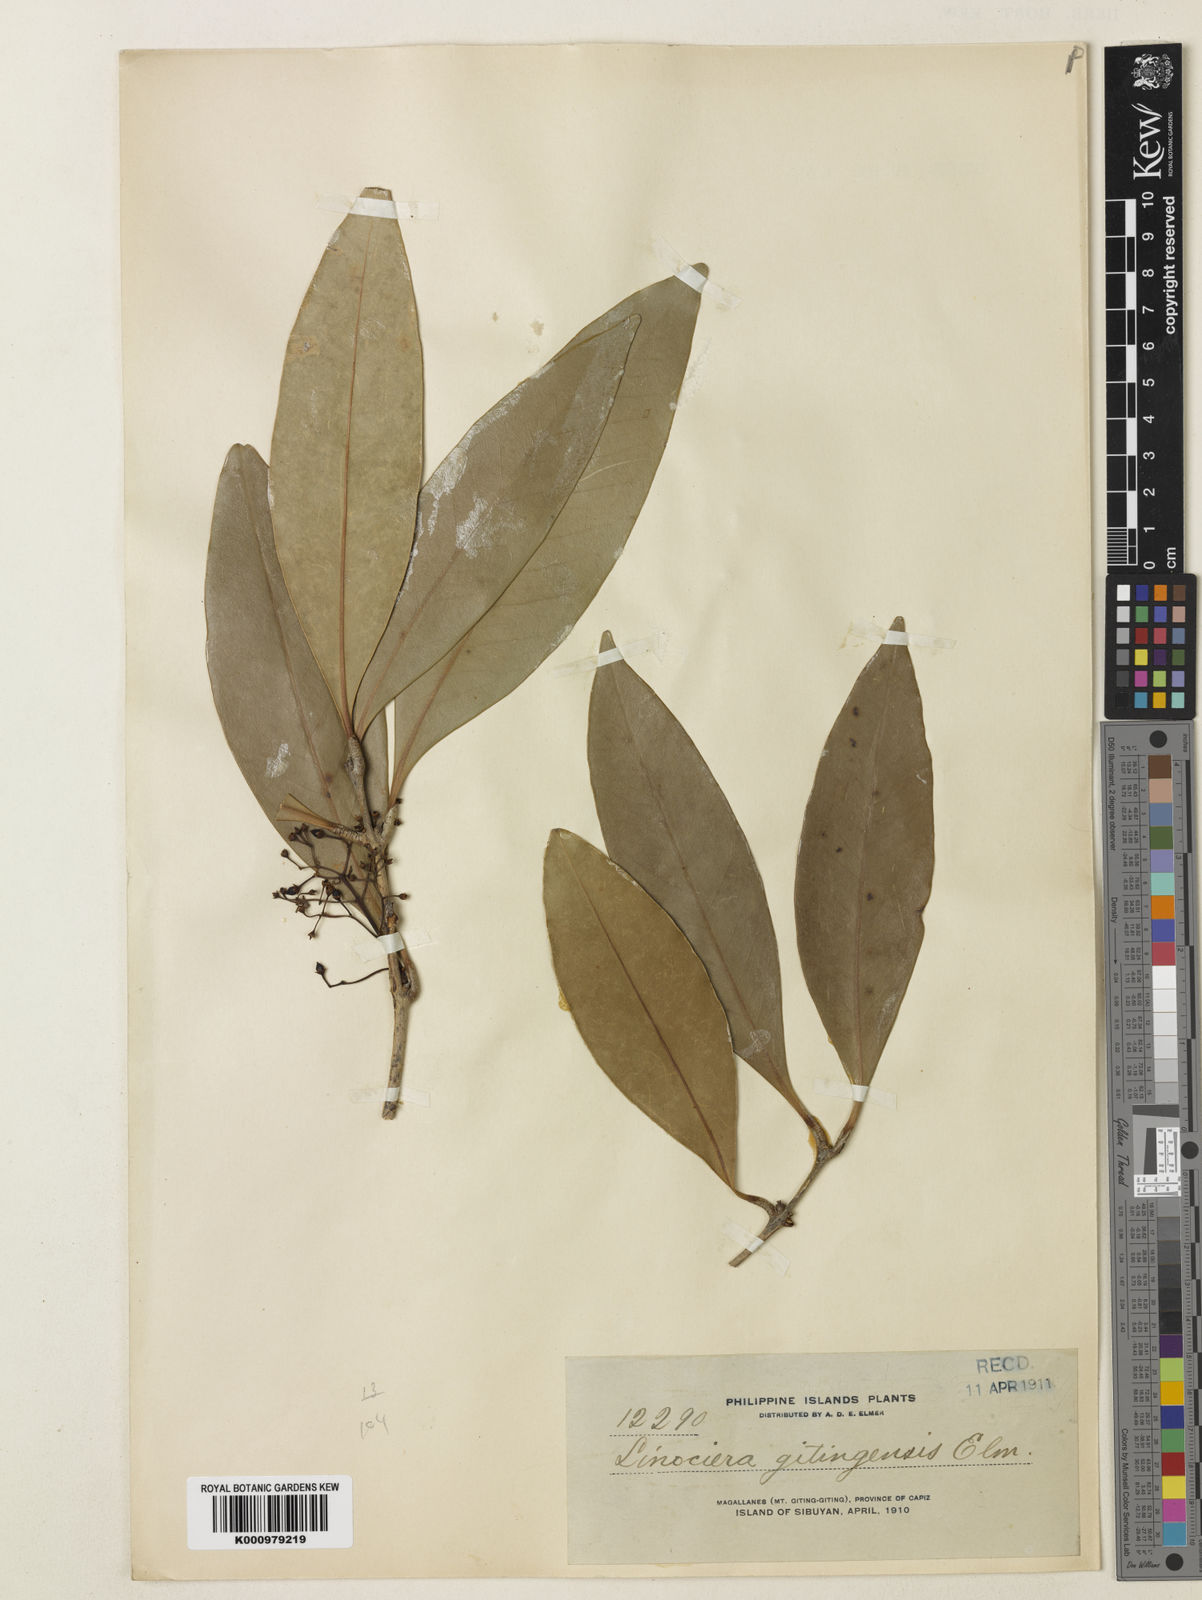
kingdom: Plantae
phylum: Tracheophyta
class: Magnoliopsida
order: Lamiales
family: Oleaceae
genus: Tetrapilus
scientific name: Tetrapilus borneensis
